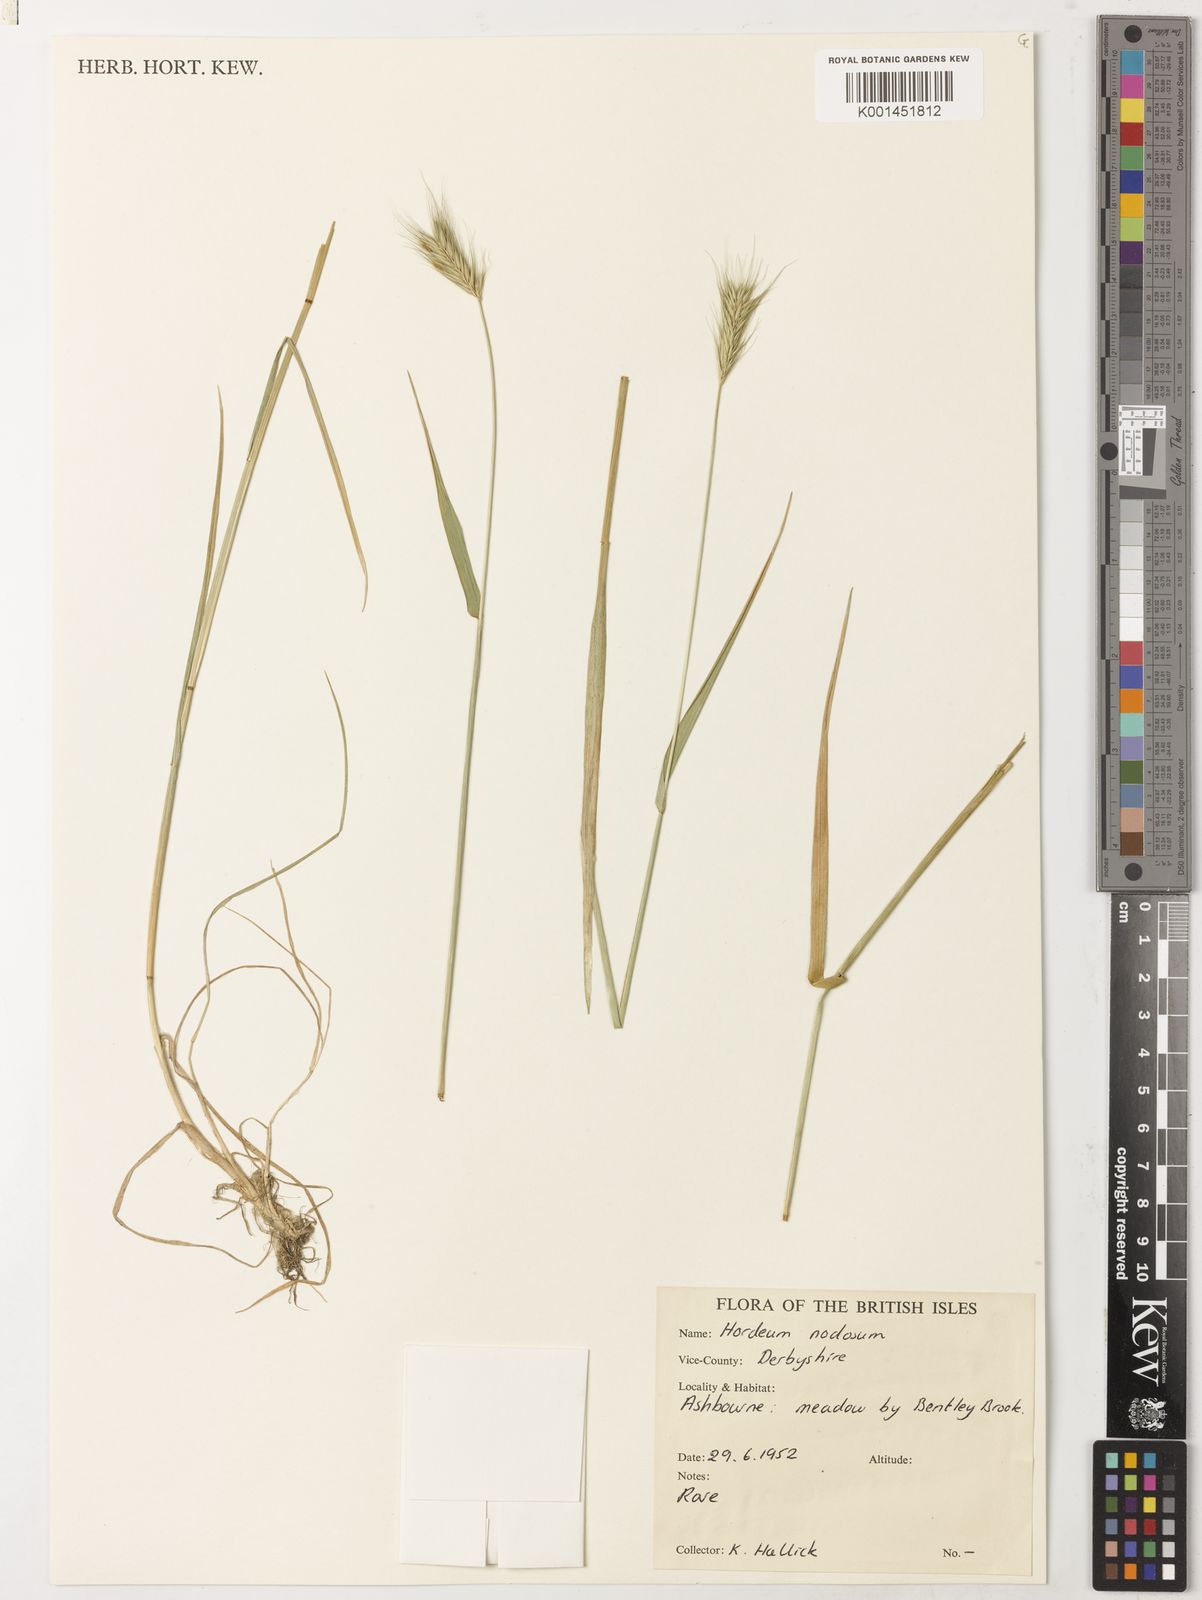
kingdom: Plantae
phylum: Tracheophyta
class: Liliopsida
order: Poales
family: Poaceae
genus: Hordeum
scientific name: Hordeum secalinum
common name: Meadow barley
